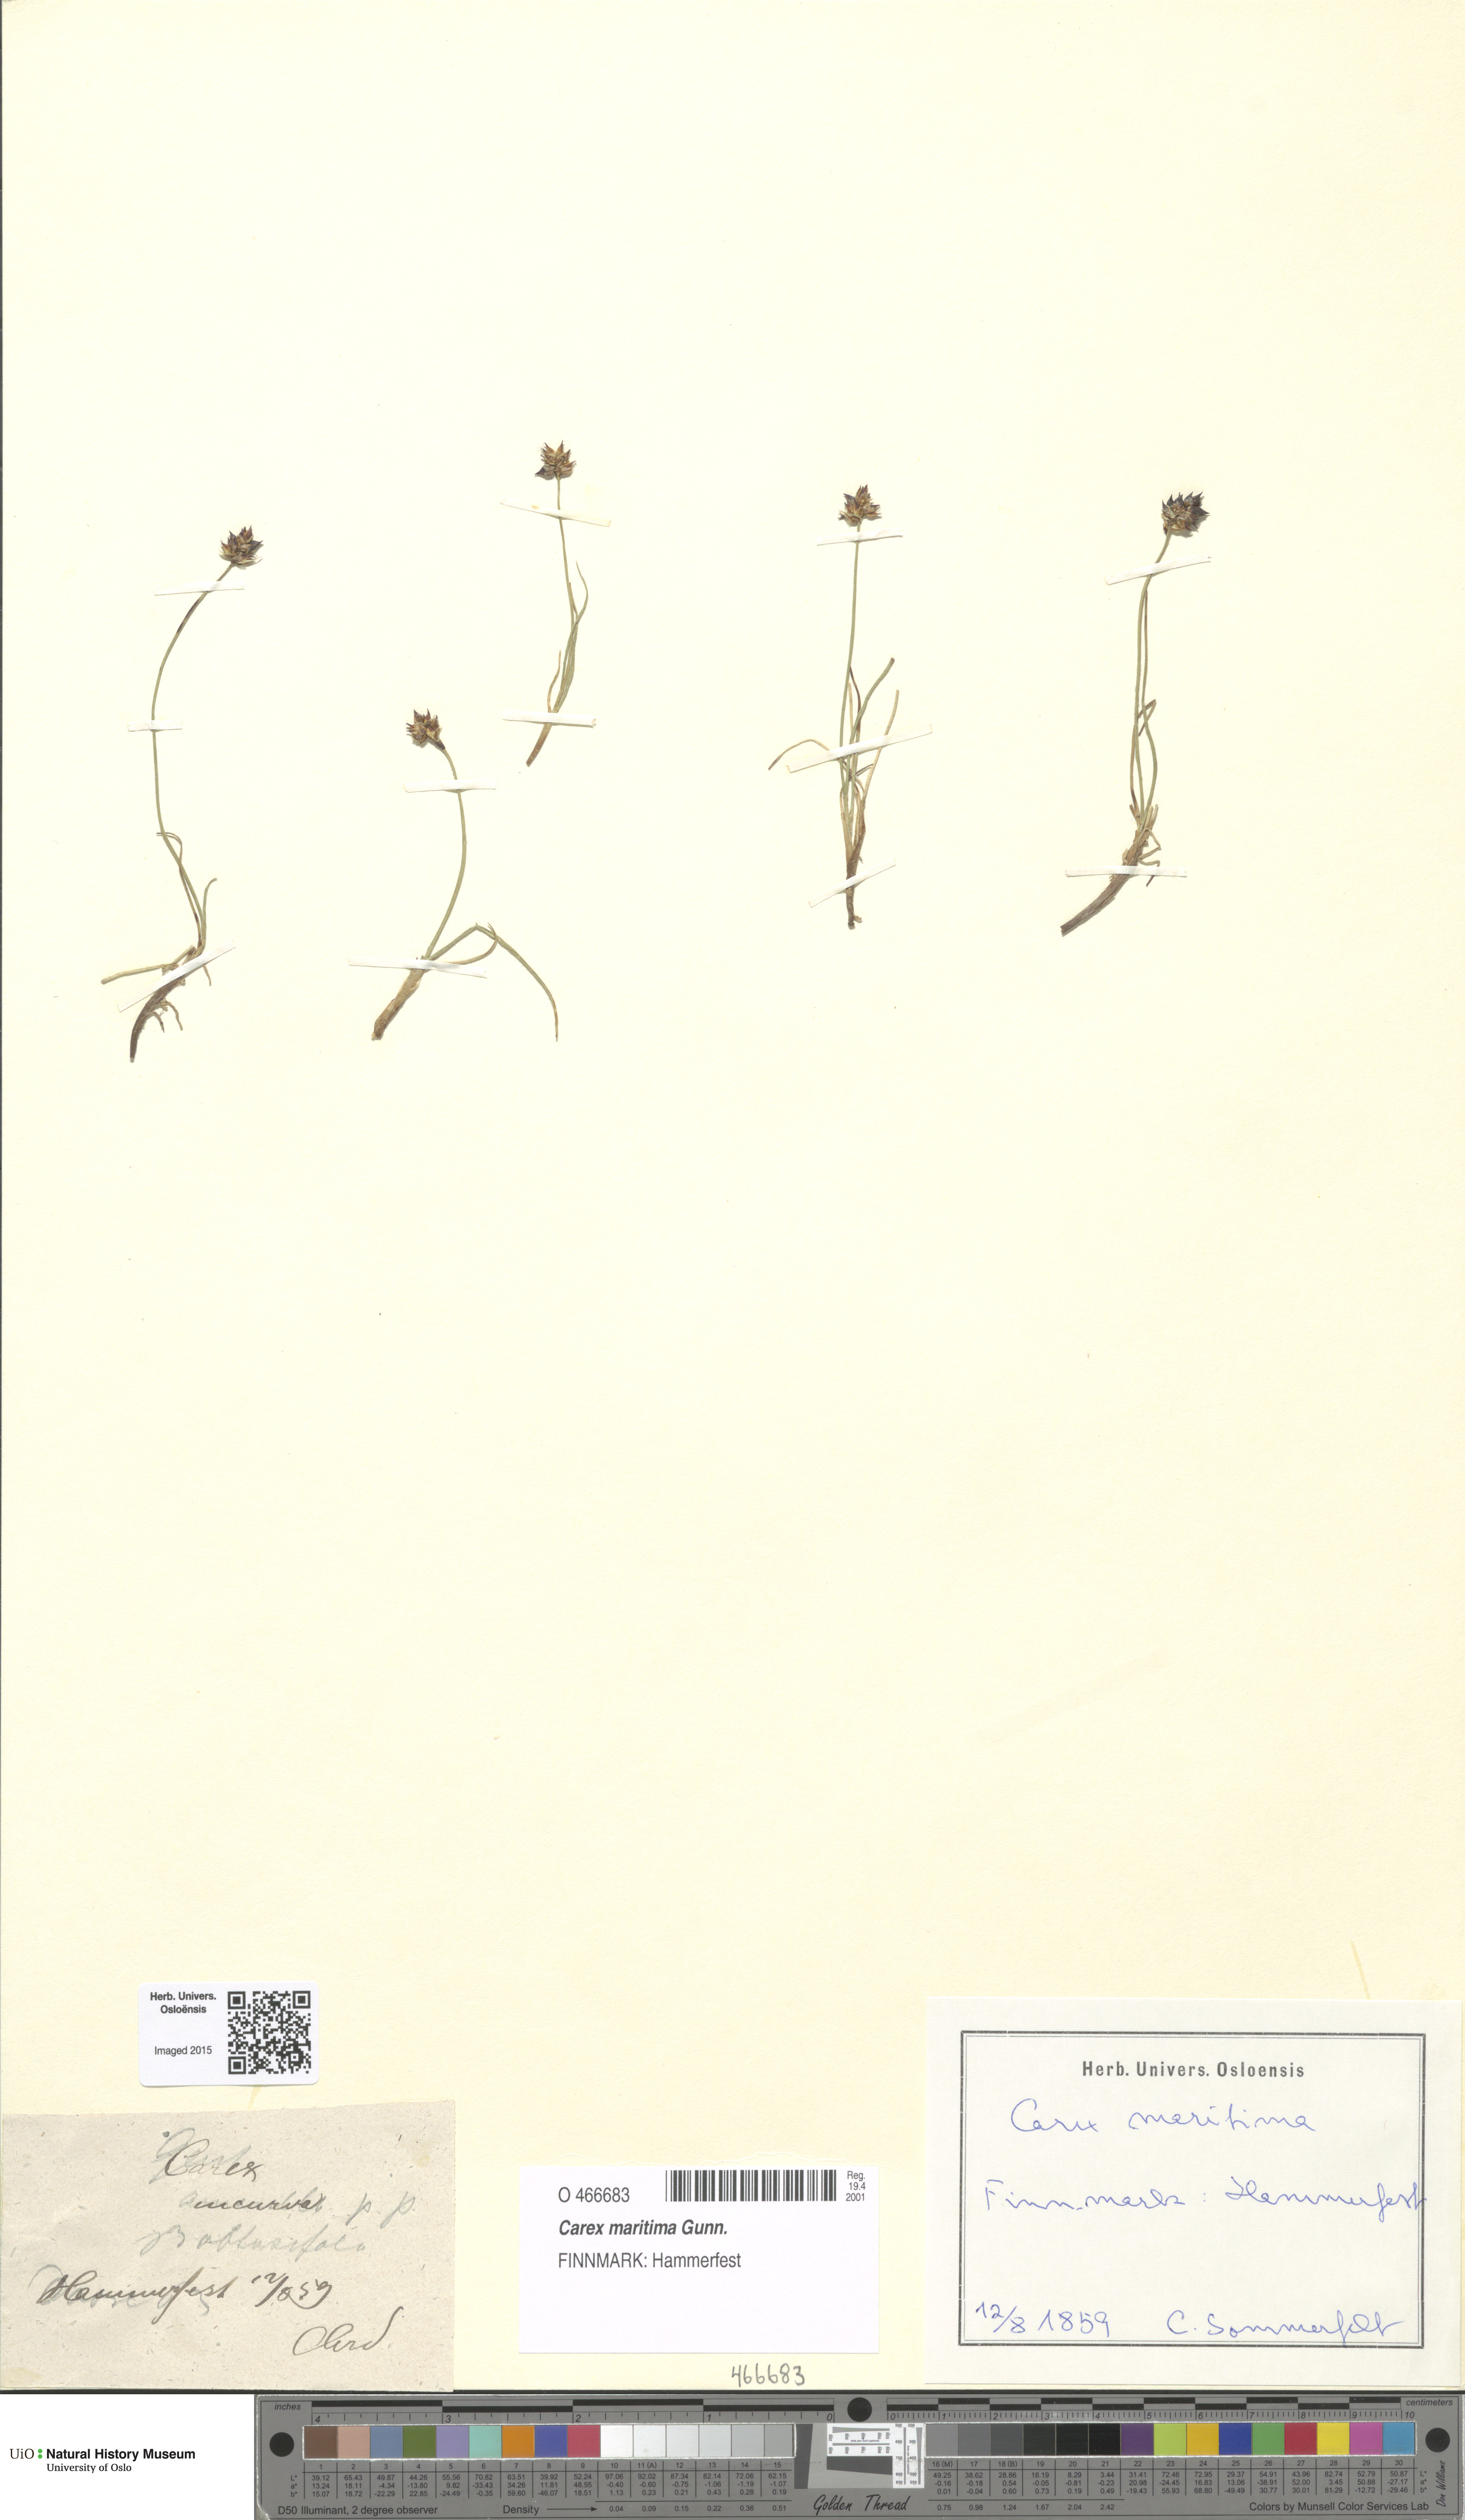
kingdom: Plantae
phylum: Tracheophyta
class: Liliopsida
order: Poales
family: Cyperaceae
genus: Carex
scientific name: Carex maritima
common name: Curved sedge
